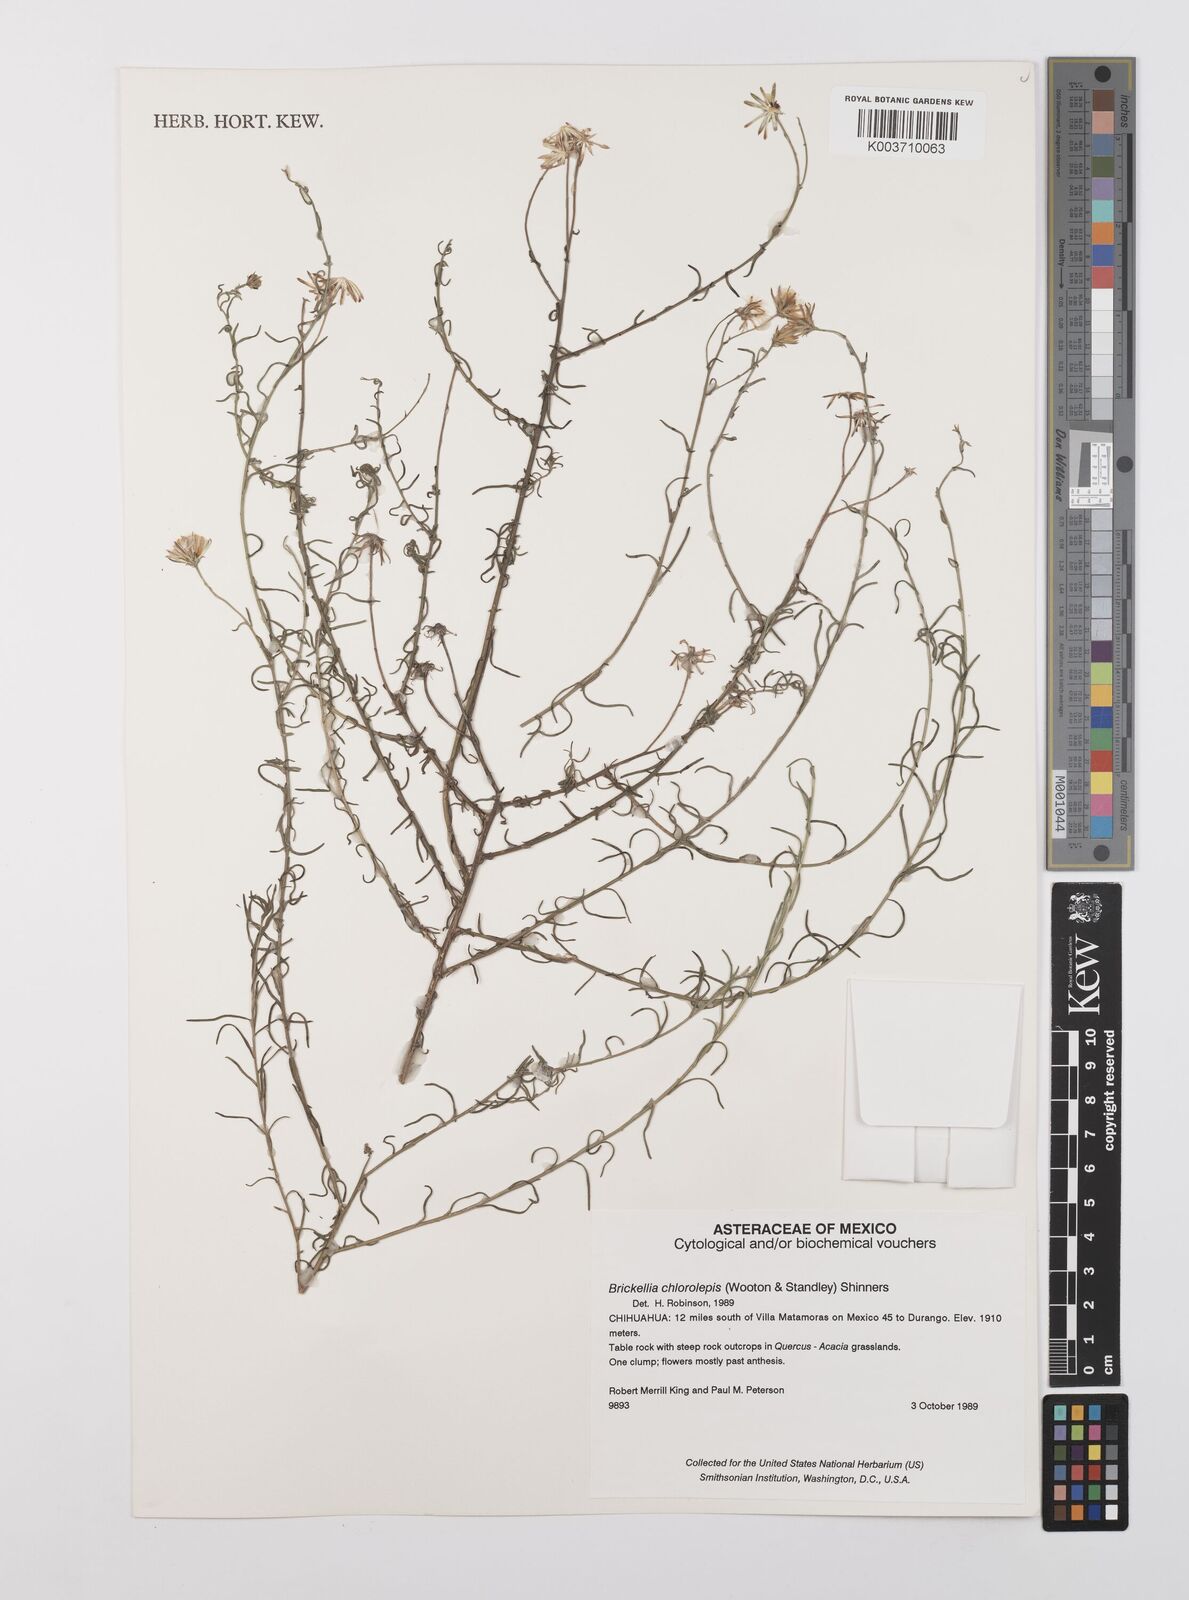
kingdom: Plantae
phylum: Tracheophyta
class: Magnoliopsida
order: Asterales
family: Asteraceae
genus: Brickellia
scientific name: Brickellia leptophylla
